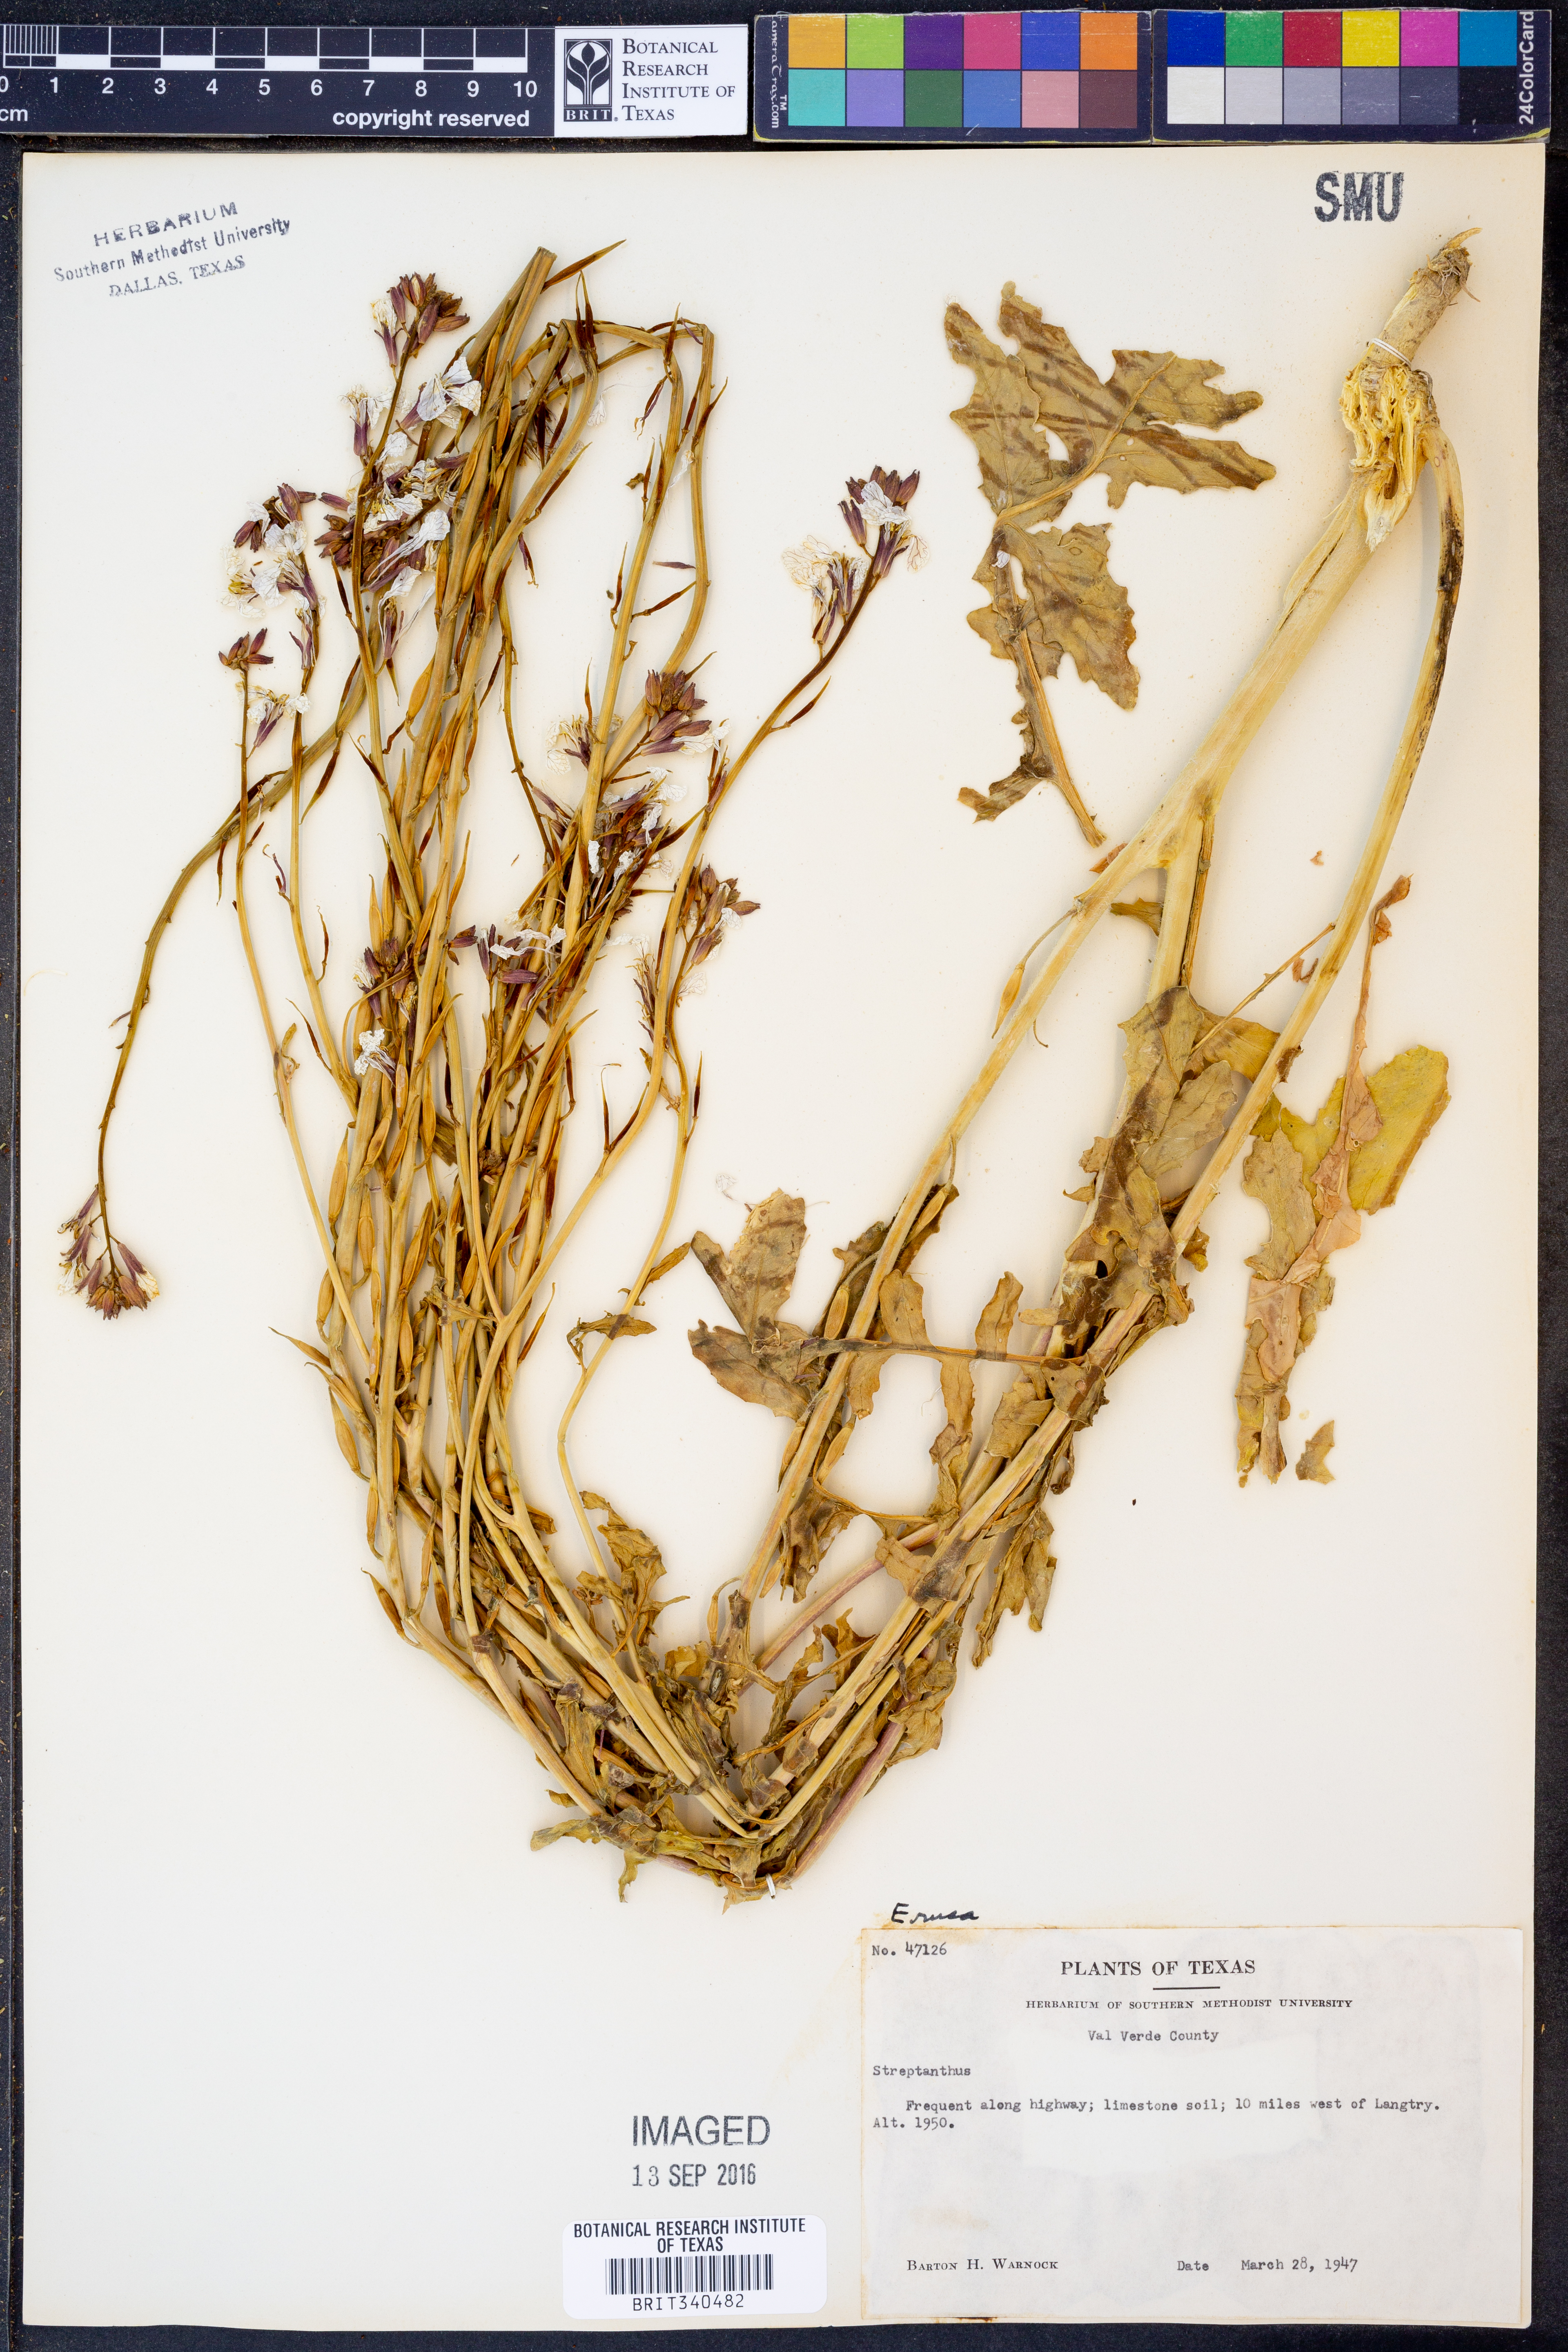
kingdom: Plantae
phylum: Tracheophyta
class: Magnoliopsida
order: Brassicales
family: Brassicaceae
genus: Eruca
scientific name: Eruca
